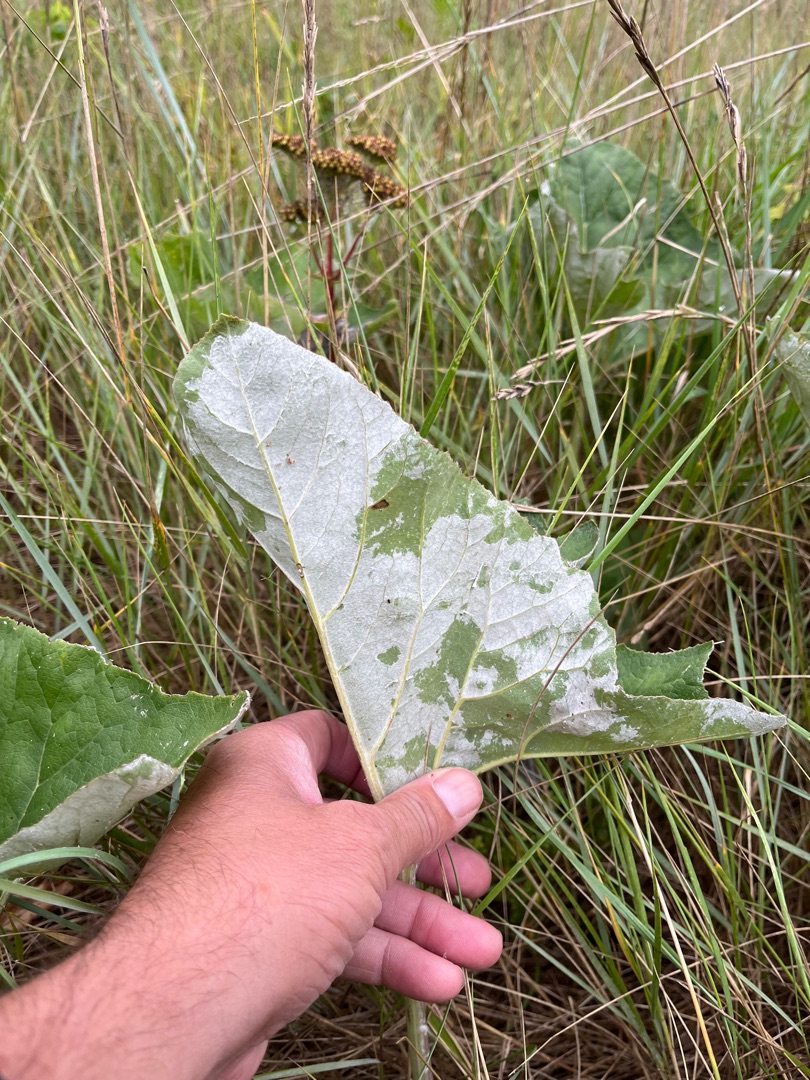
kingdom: Plantae
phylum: Tracheophyta
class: Magnoliopsida
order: Asterales
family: Asteraceae
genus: Petasites
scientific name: Petasites spurius
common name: Filtet hestehov
